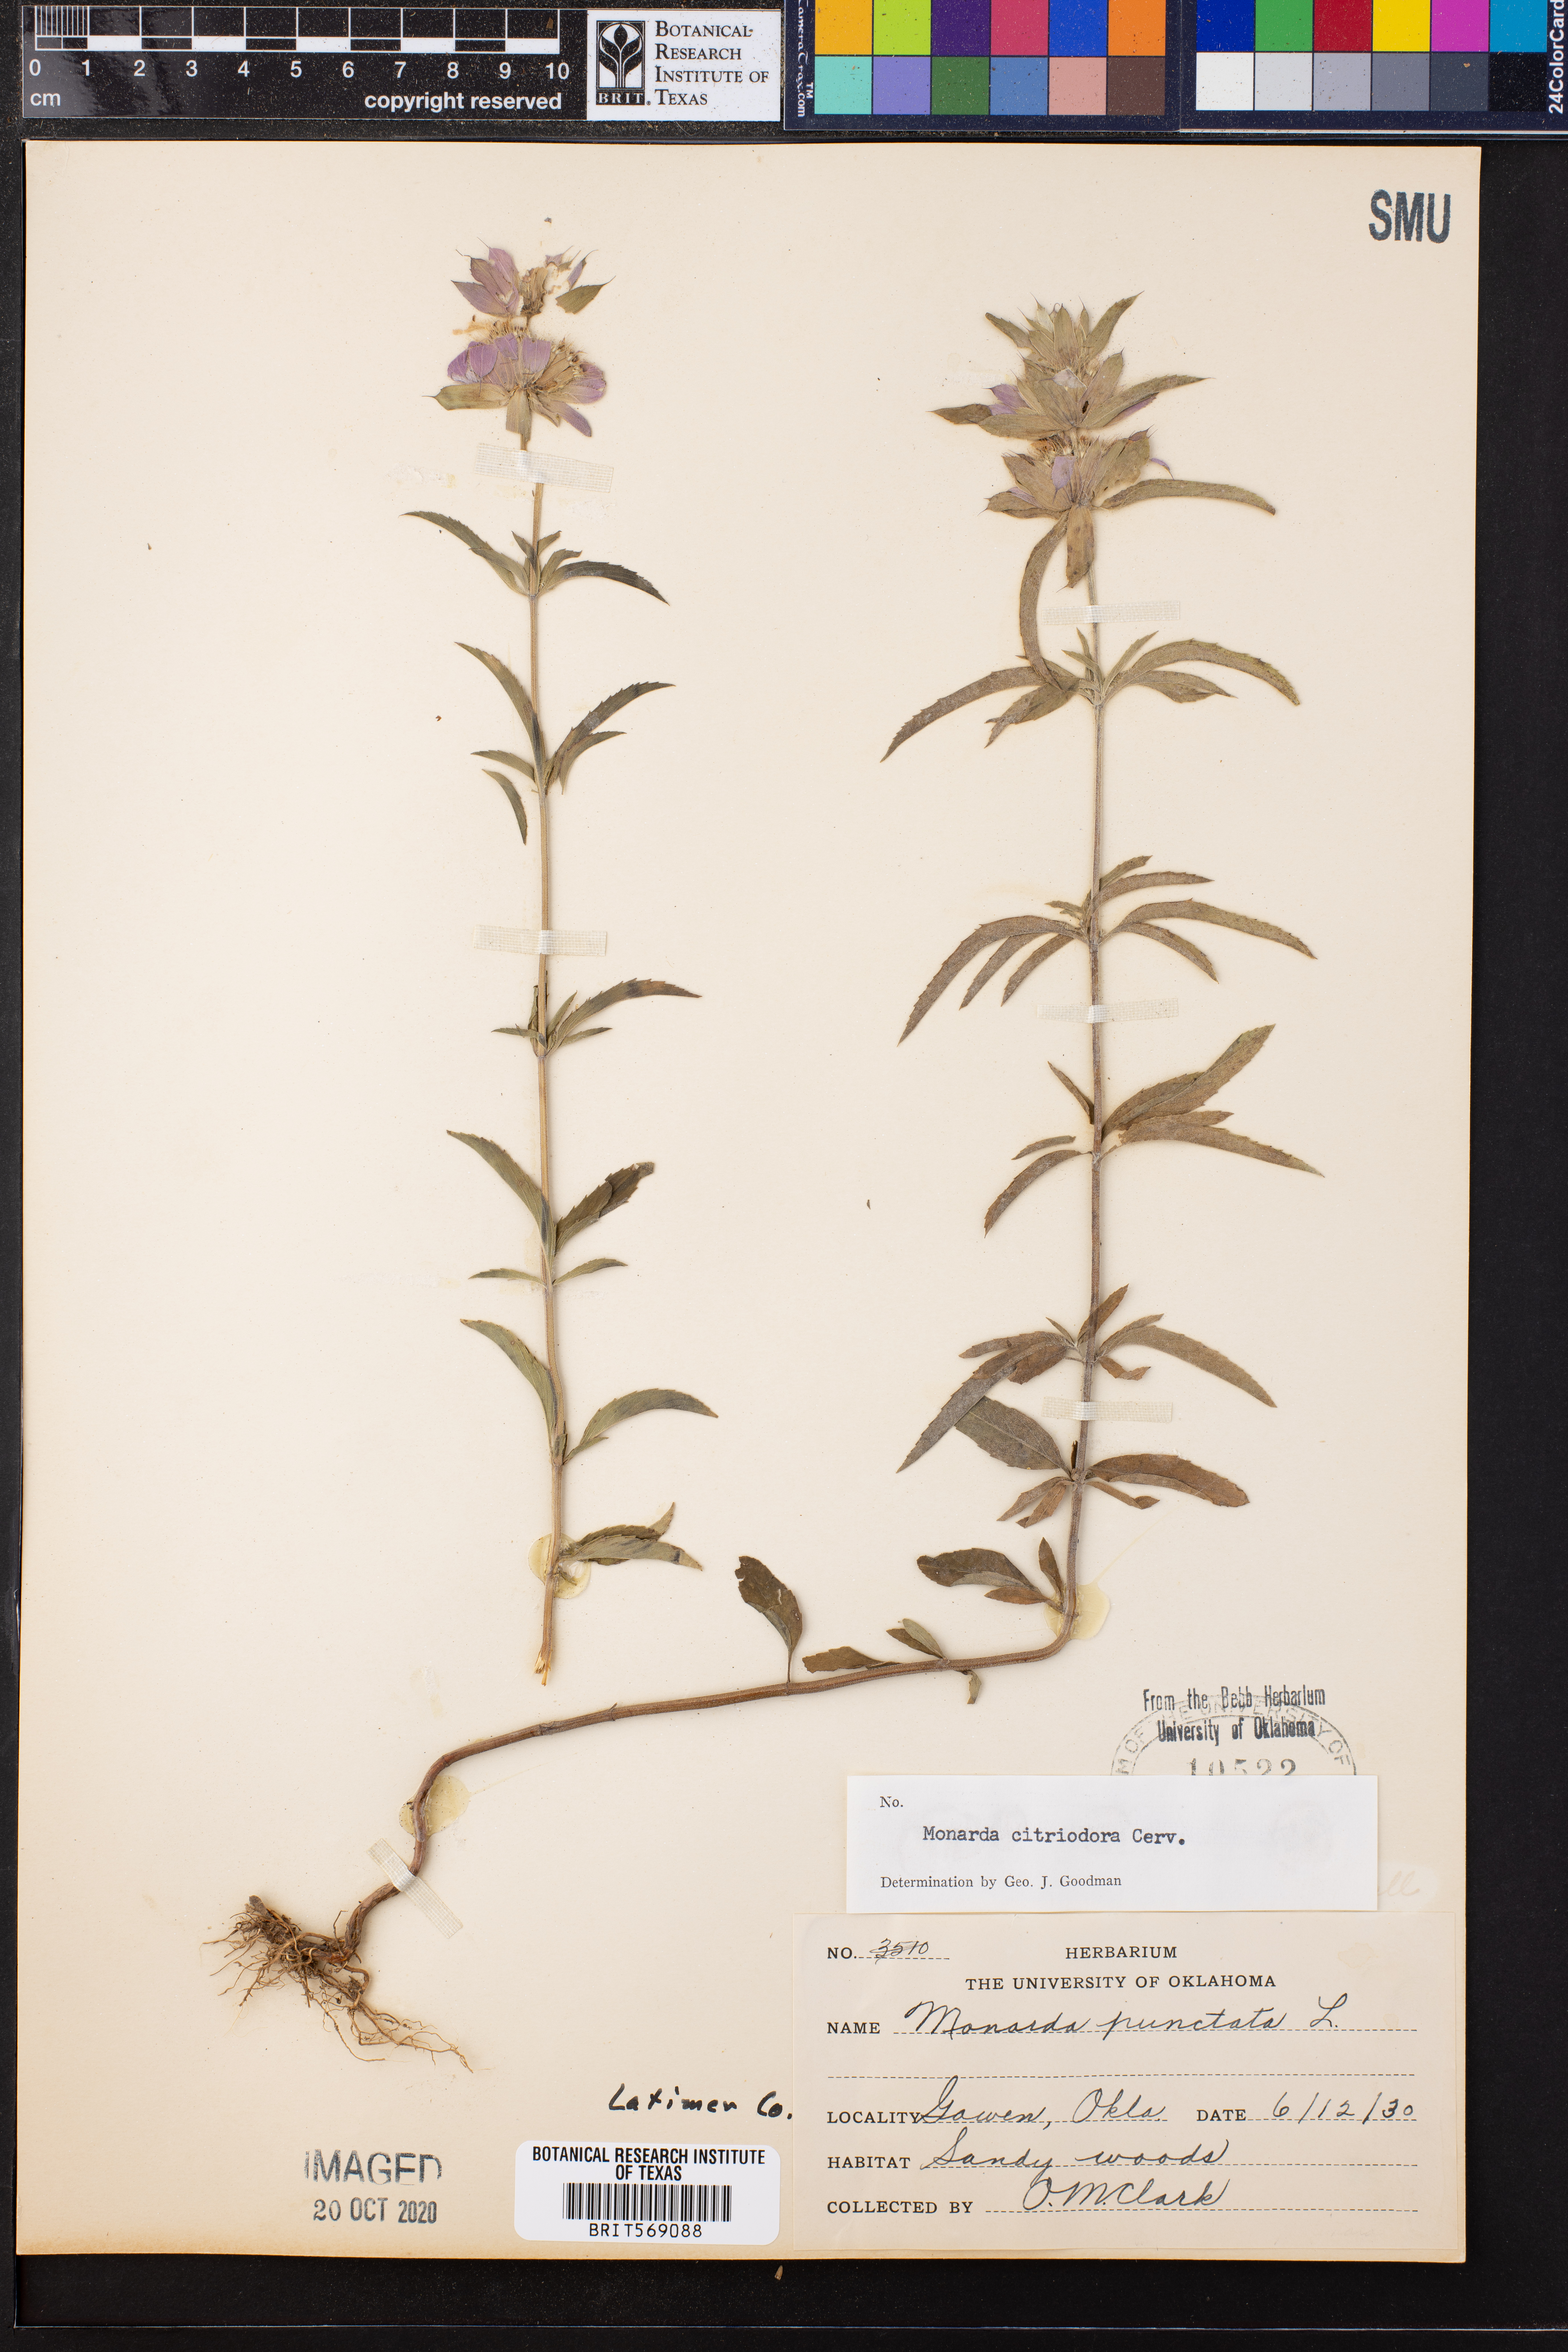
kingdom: Plantae
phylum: Tracheophyta
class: Magnoliopsida
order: Lamiales
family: Lamiaceae
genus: Monarda
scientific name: Monarda citriodora
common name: Lemon beebalm
